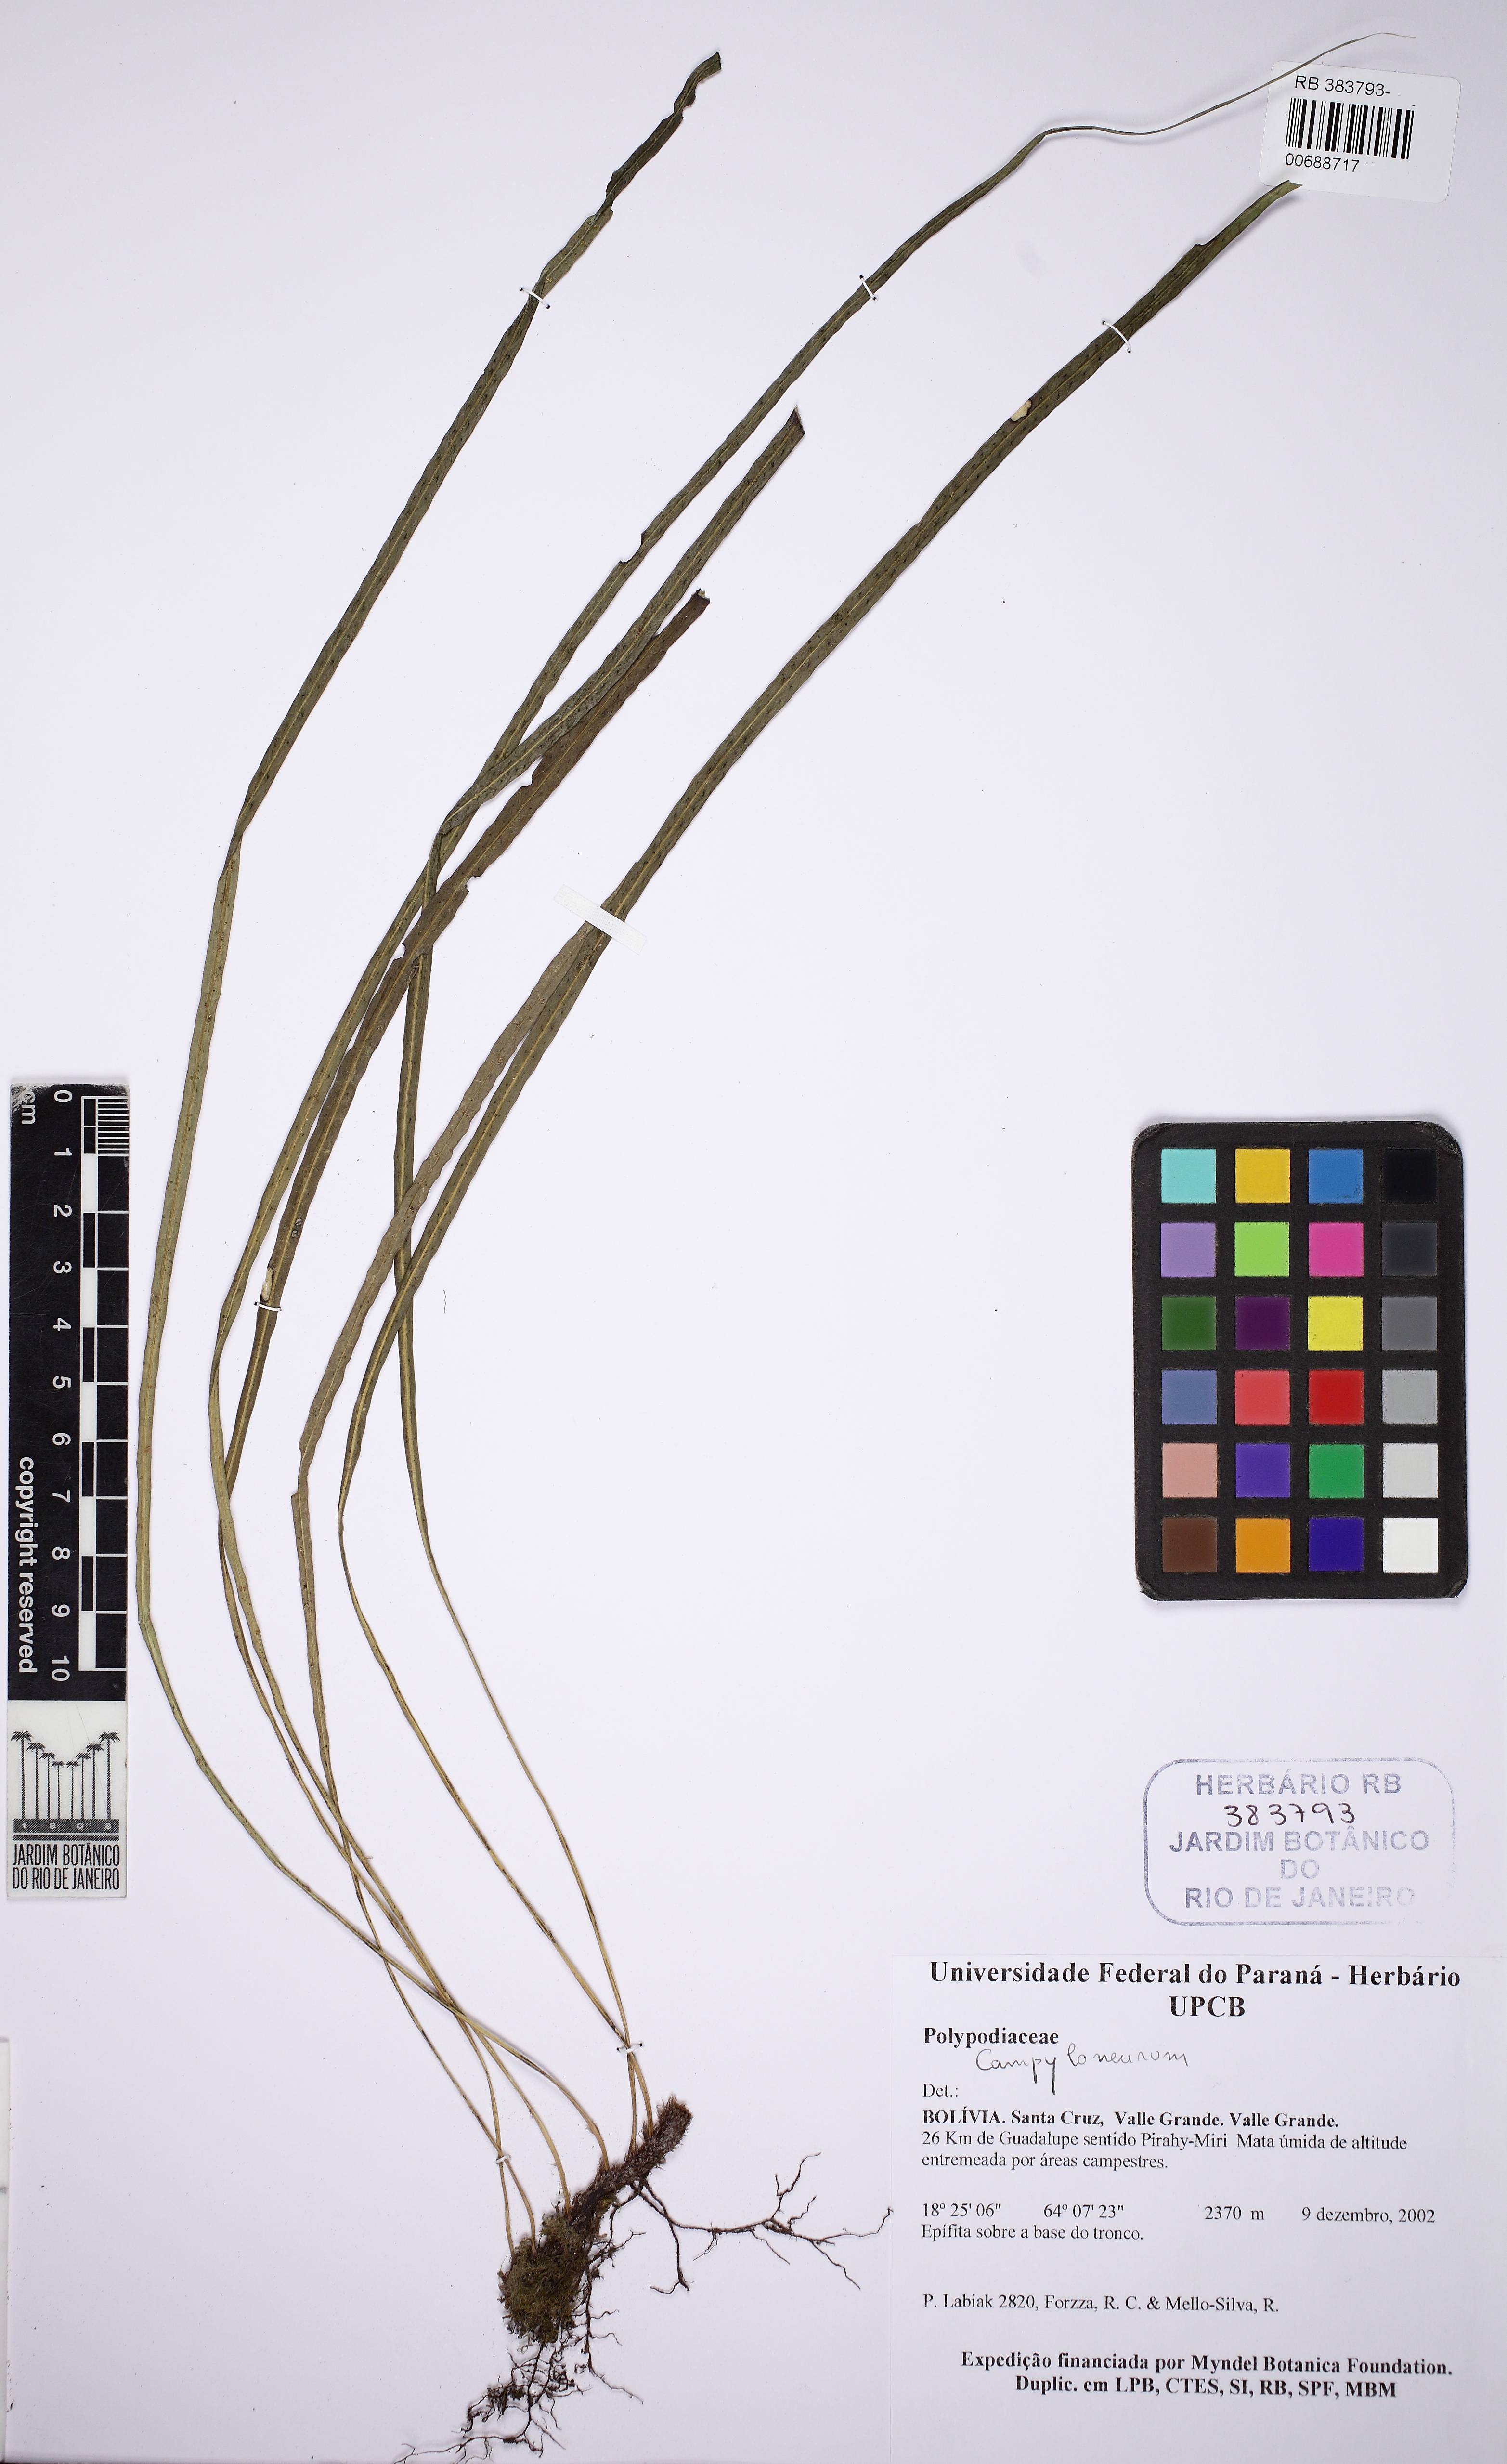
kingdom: Plantae
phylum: Tracheophyta
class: Polypodiopsida
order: Polypodiales
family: Polypodiaceae
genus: Campyloneurum
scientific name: Campyloneurum aglaolepis
